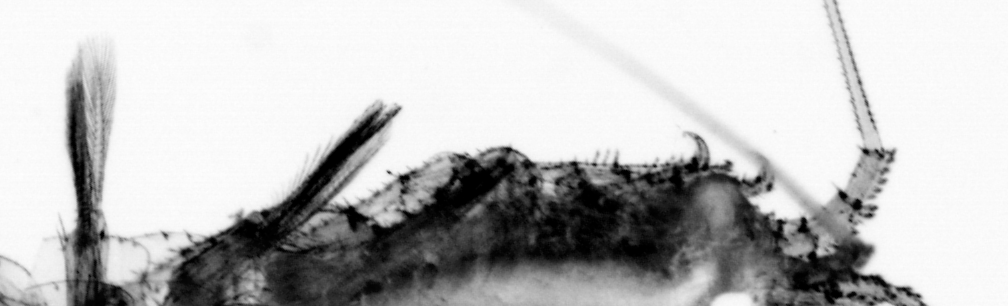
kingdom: Animalia
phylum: Annelida
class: Polychaeta
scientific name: Polychaeta
